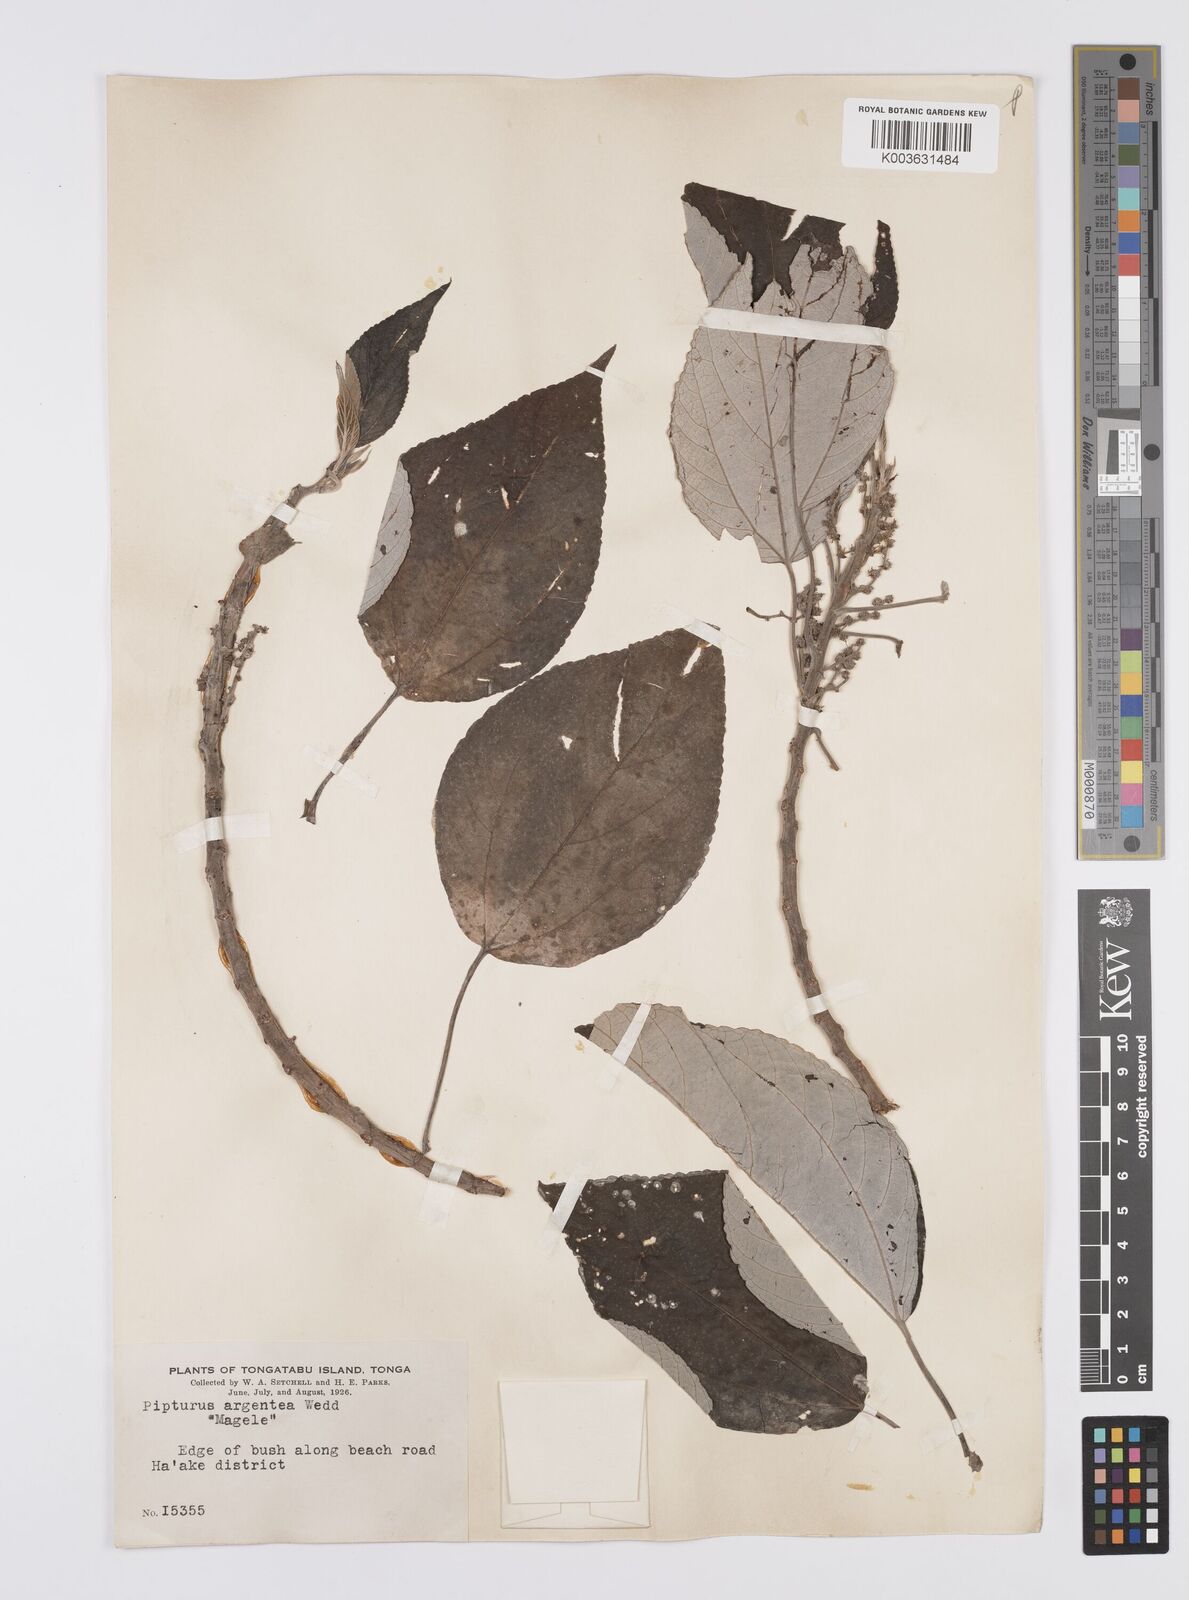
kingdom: Plantae
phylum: Tracheophyta
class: Magnoliopsida
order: Rosales
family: Urticaceae
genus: Pipturus
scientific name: Pipturus argenteus
